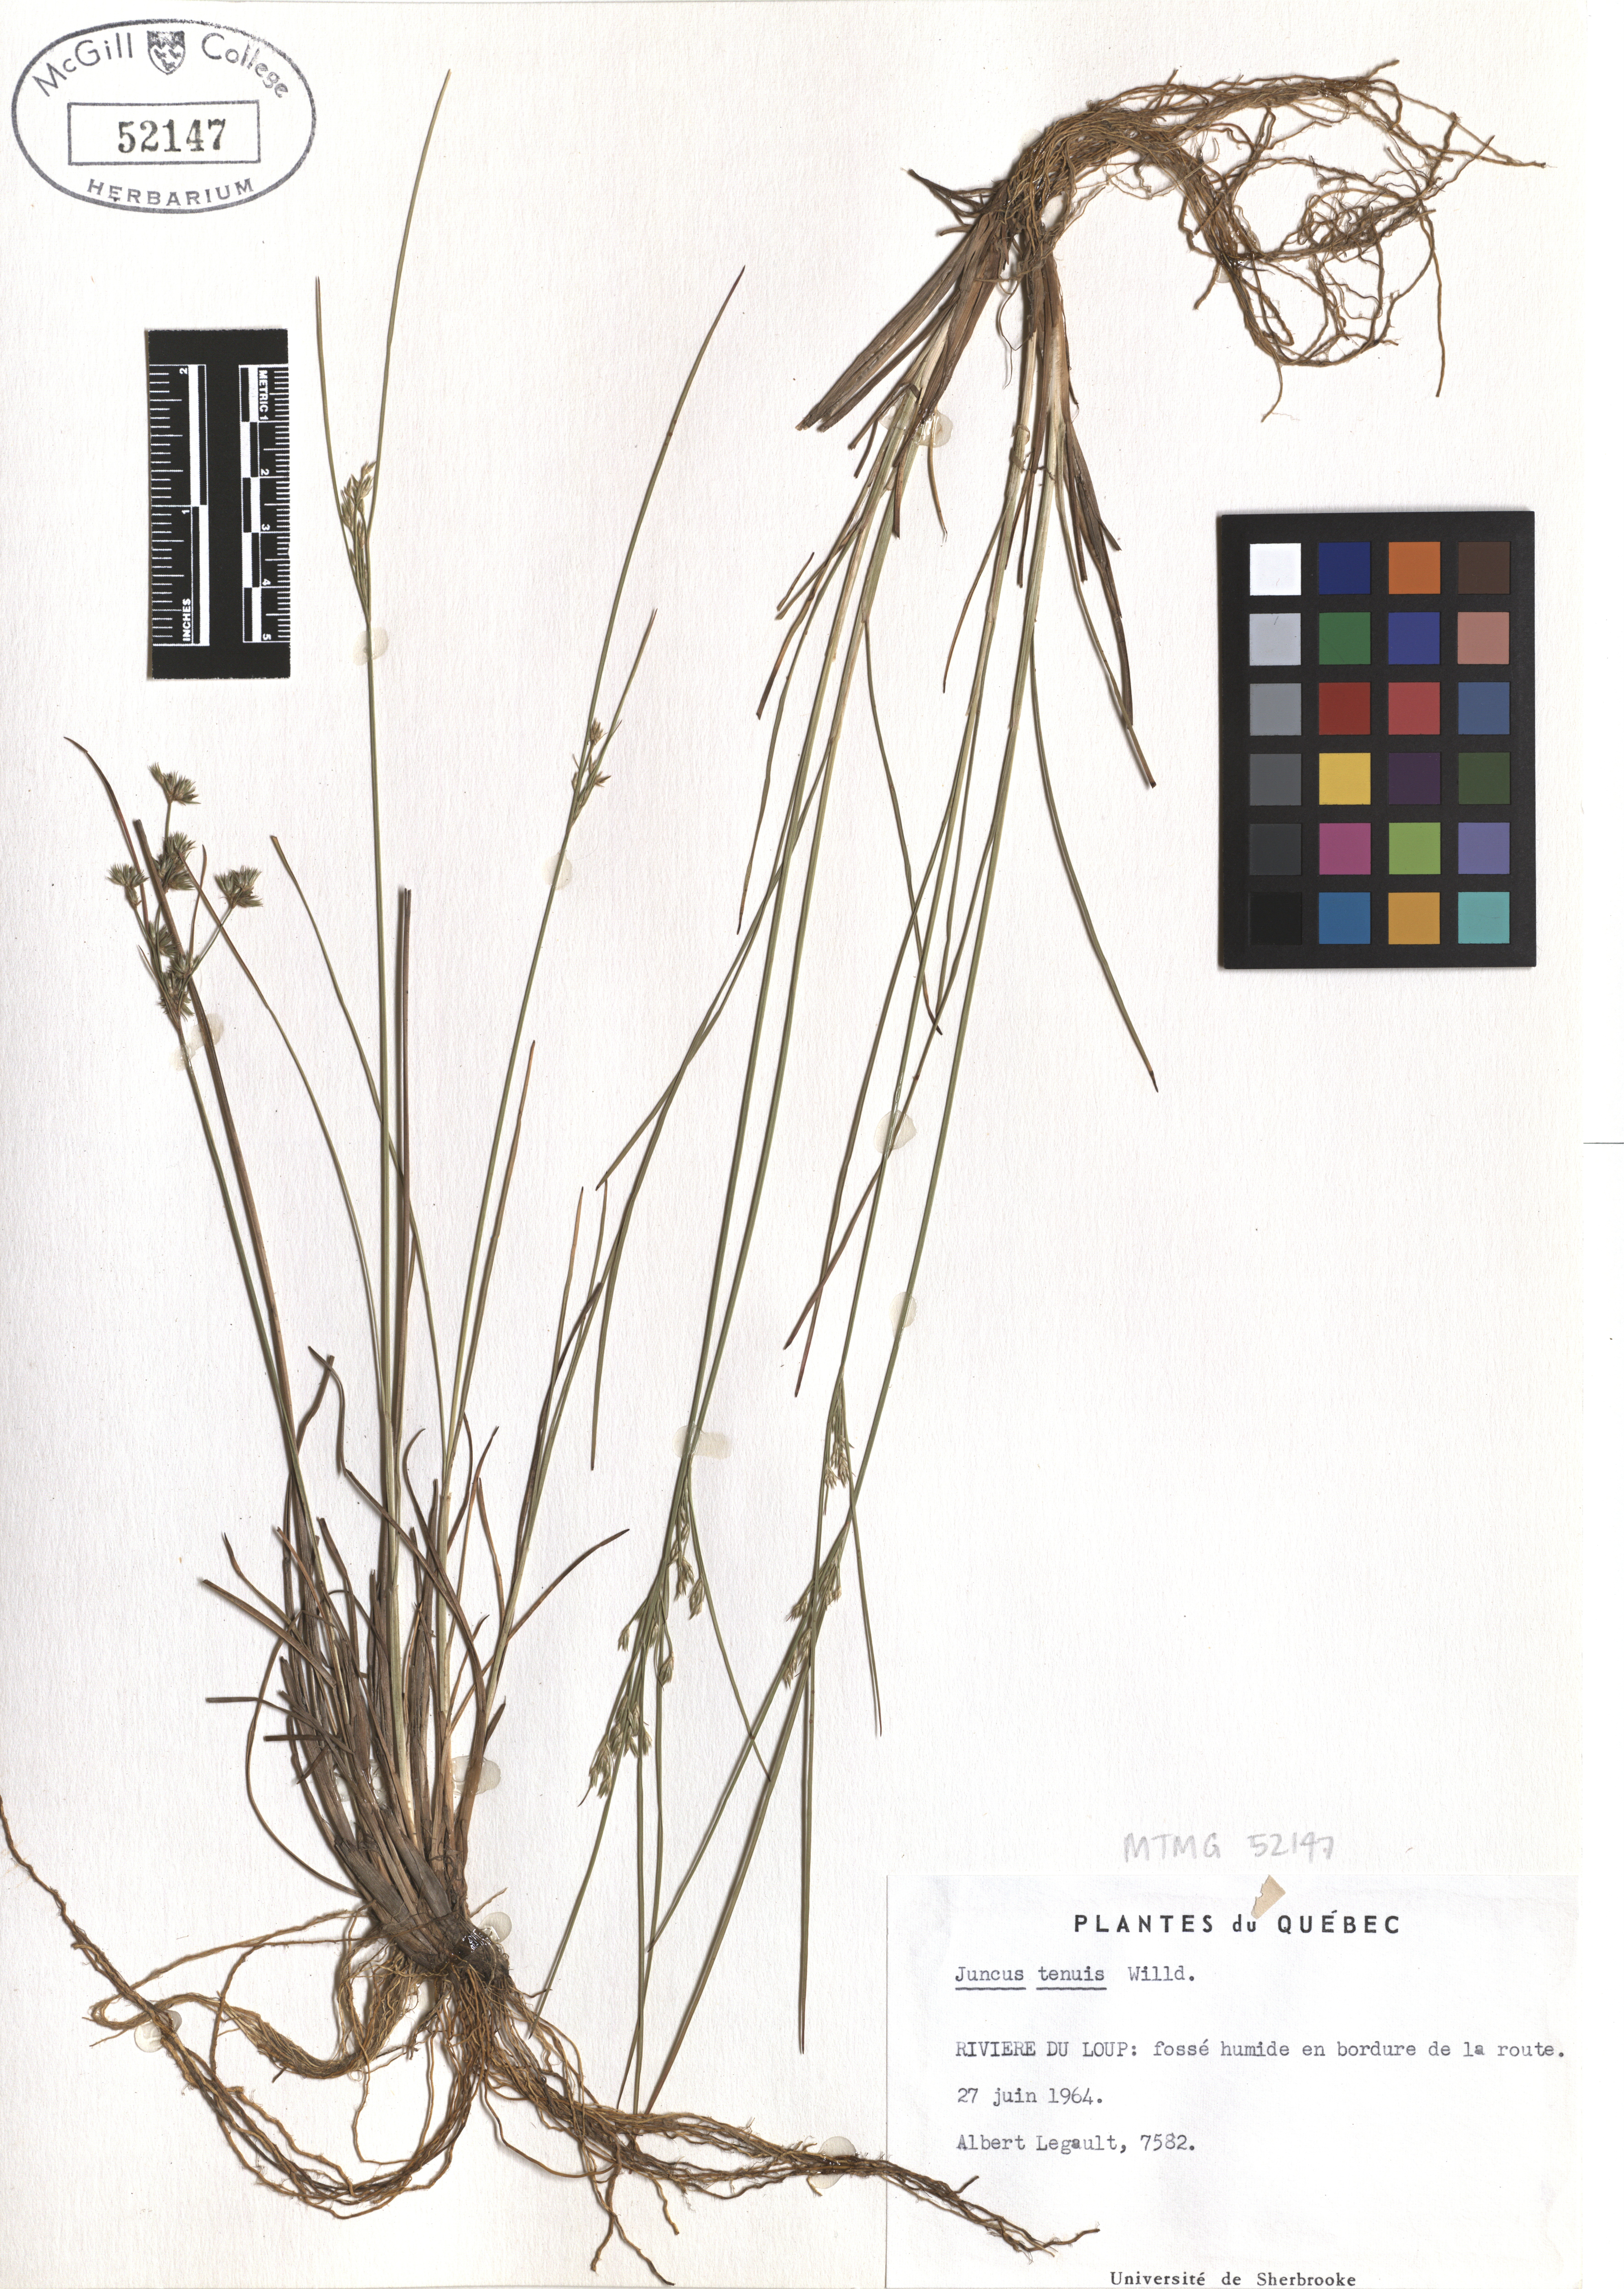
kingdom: Plantae
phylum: Tracheophyta
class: Liliopsida
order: Poales
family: Juncaceae
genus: Juncus
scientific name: Juncus tenuis
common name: Slender rush
